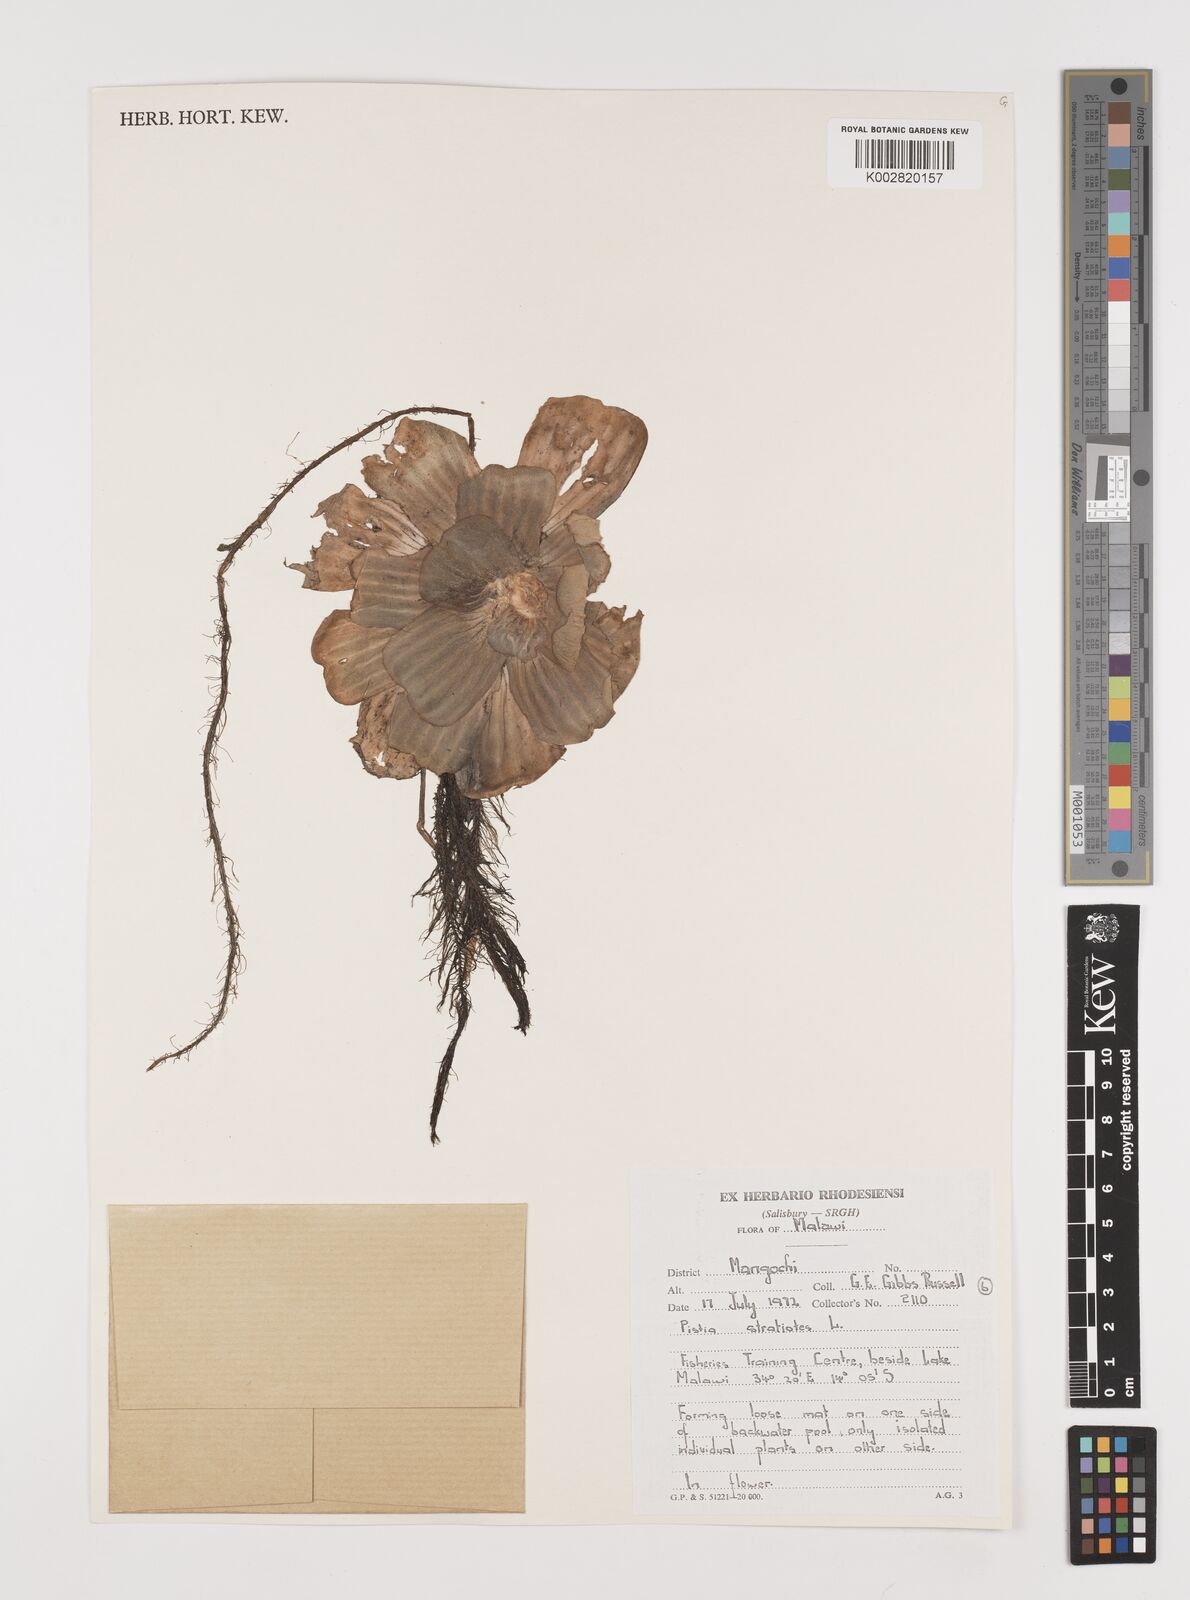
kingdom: Plantae
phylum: Tracheophyta
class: Liliopsida
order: Alismatales
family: Araceae
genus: Pistia
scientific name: Pistia stratiotes
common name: Water lettuce
